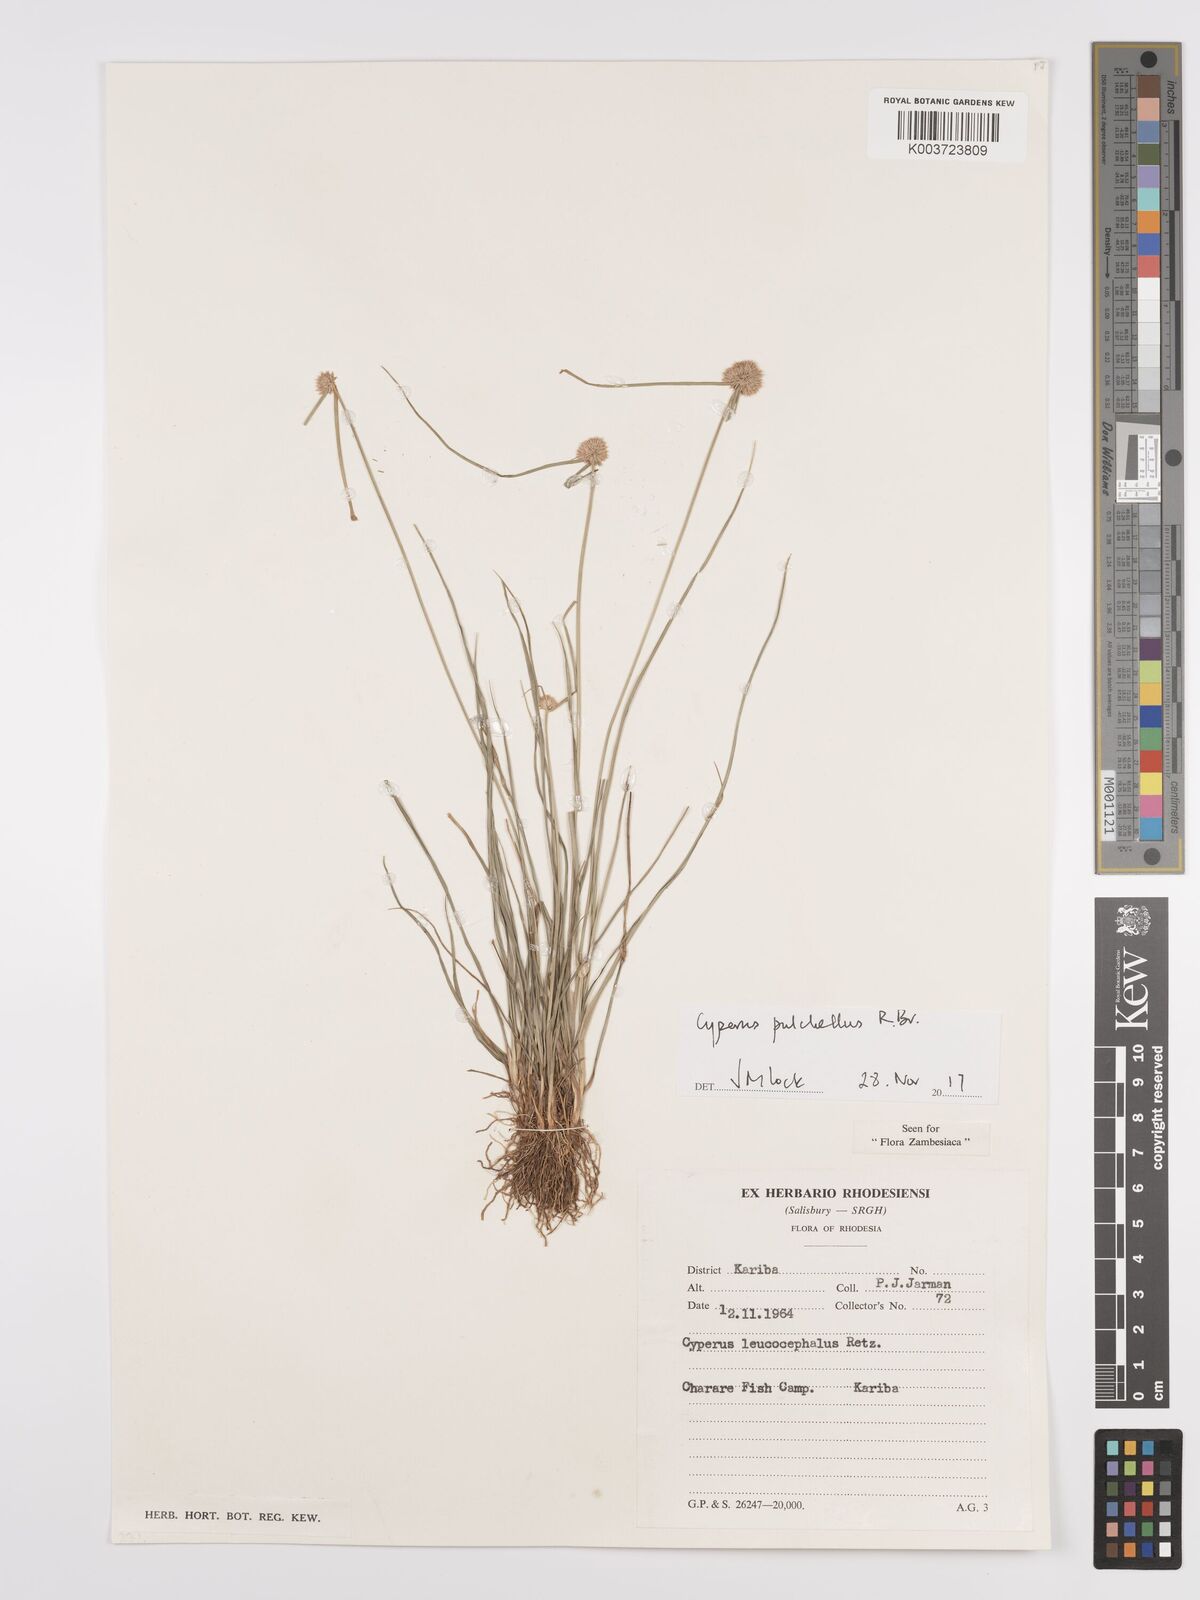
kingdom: Plantae
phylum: Tracheophyta
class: Liliopsida
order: Poales
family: Cyperaceae
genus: Cyperus
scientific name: Cyperus pulchellus
